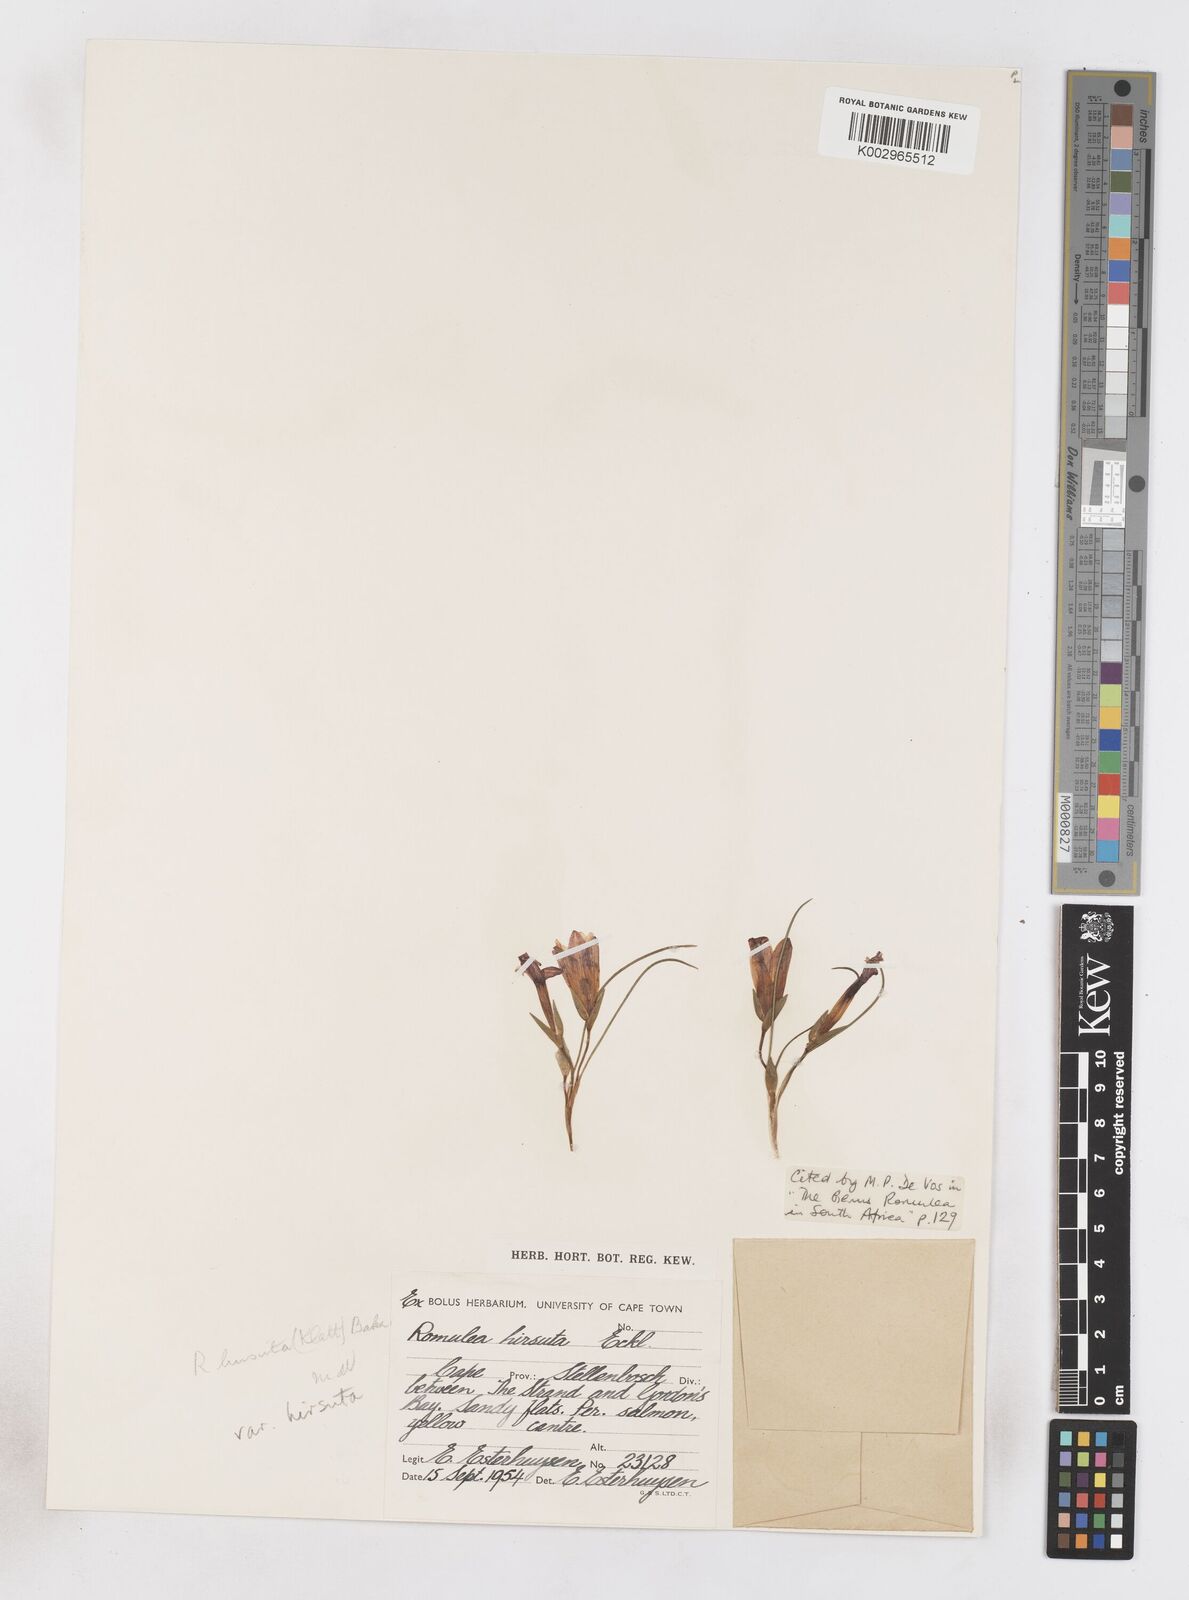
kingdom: Plantae
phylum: Tracheophyta
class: Liliopsida
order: Asparagales
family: Iridaceae
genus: Romulea
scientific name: Romulea hirsuta
